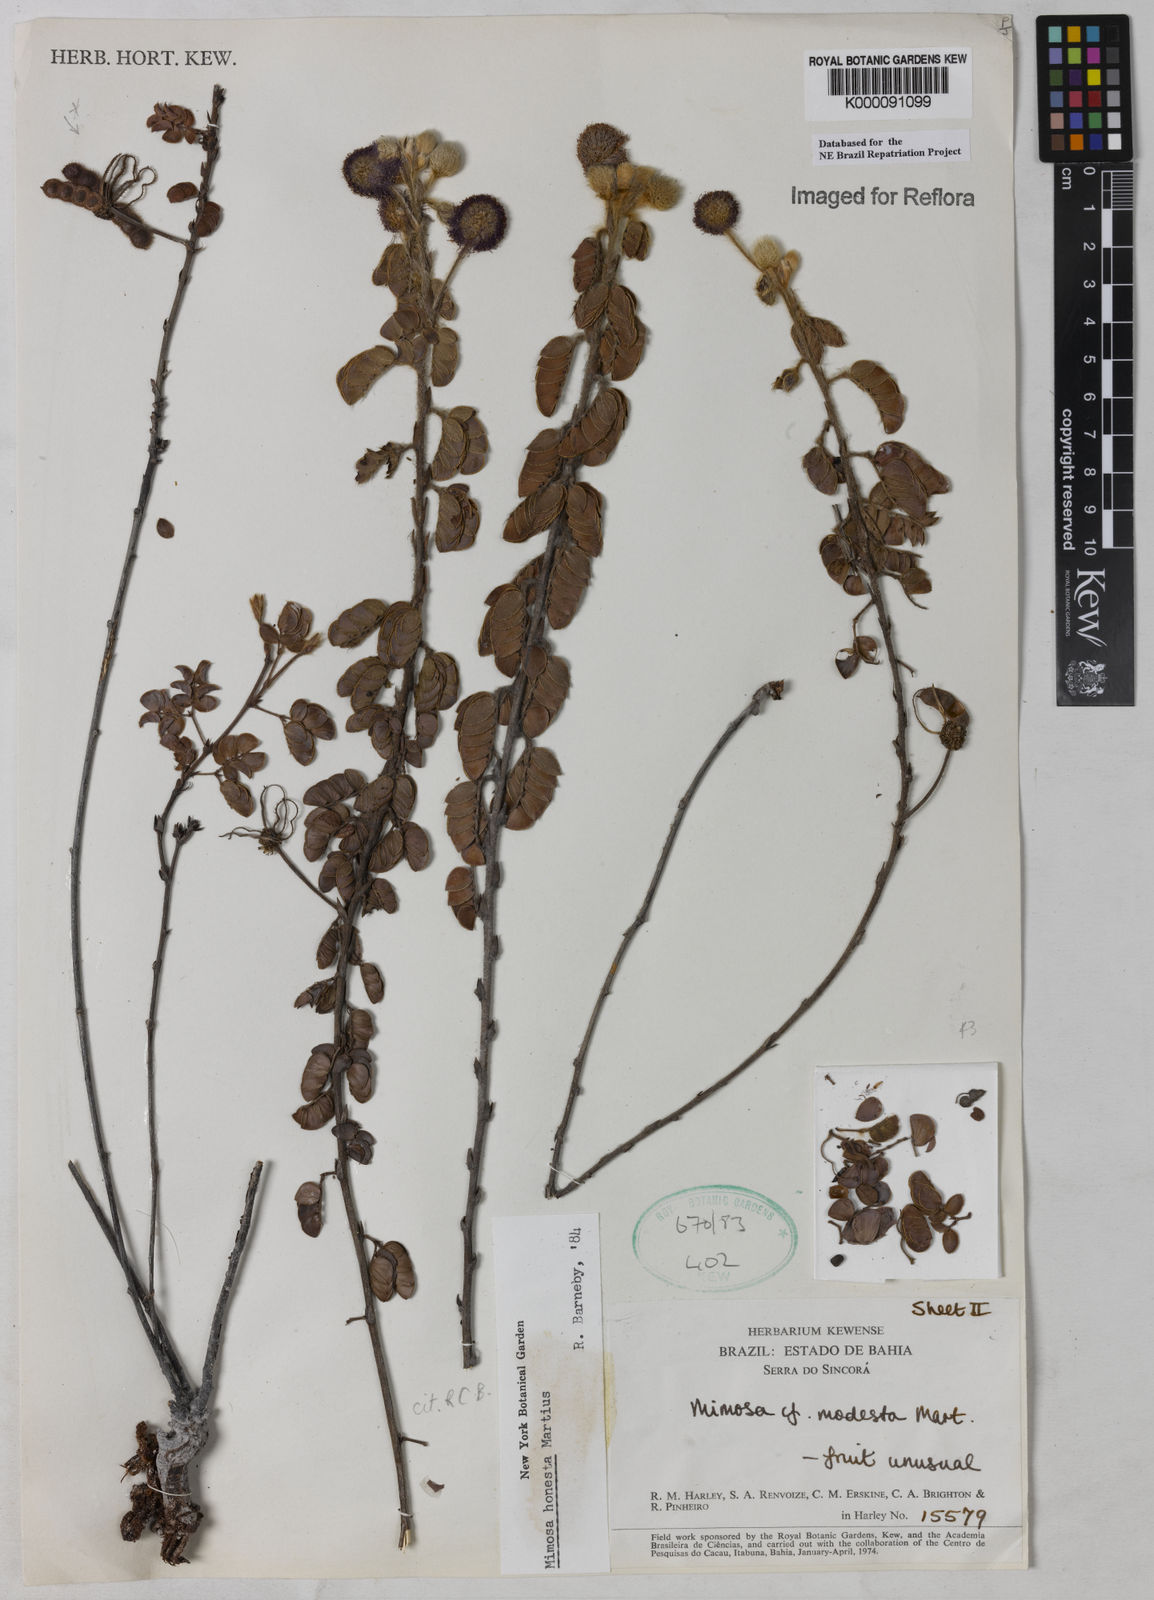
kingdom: Plantae
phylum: Tracheophyta
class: Magnoliopsida
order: Fabales
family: Fabaceae
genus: Mimosa
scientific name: Mimosa honesta
